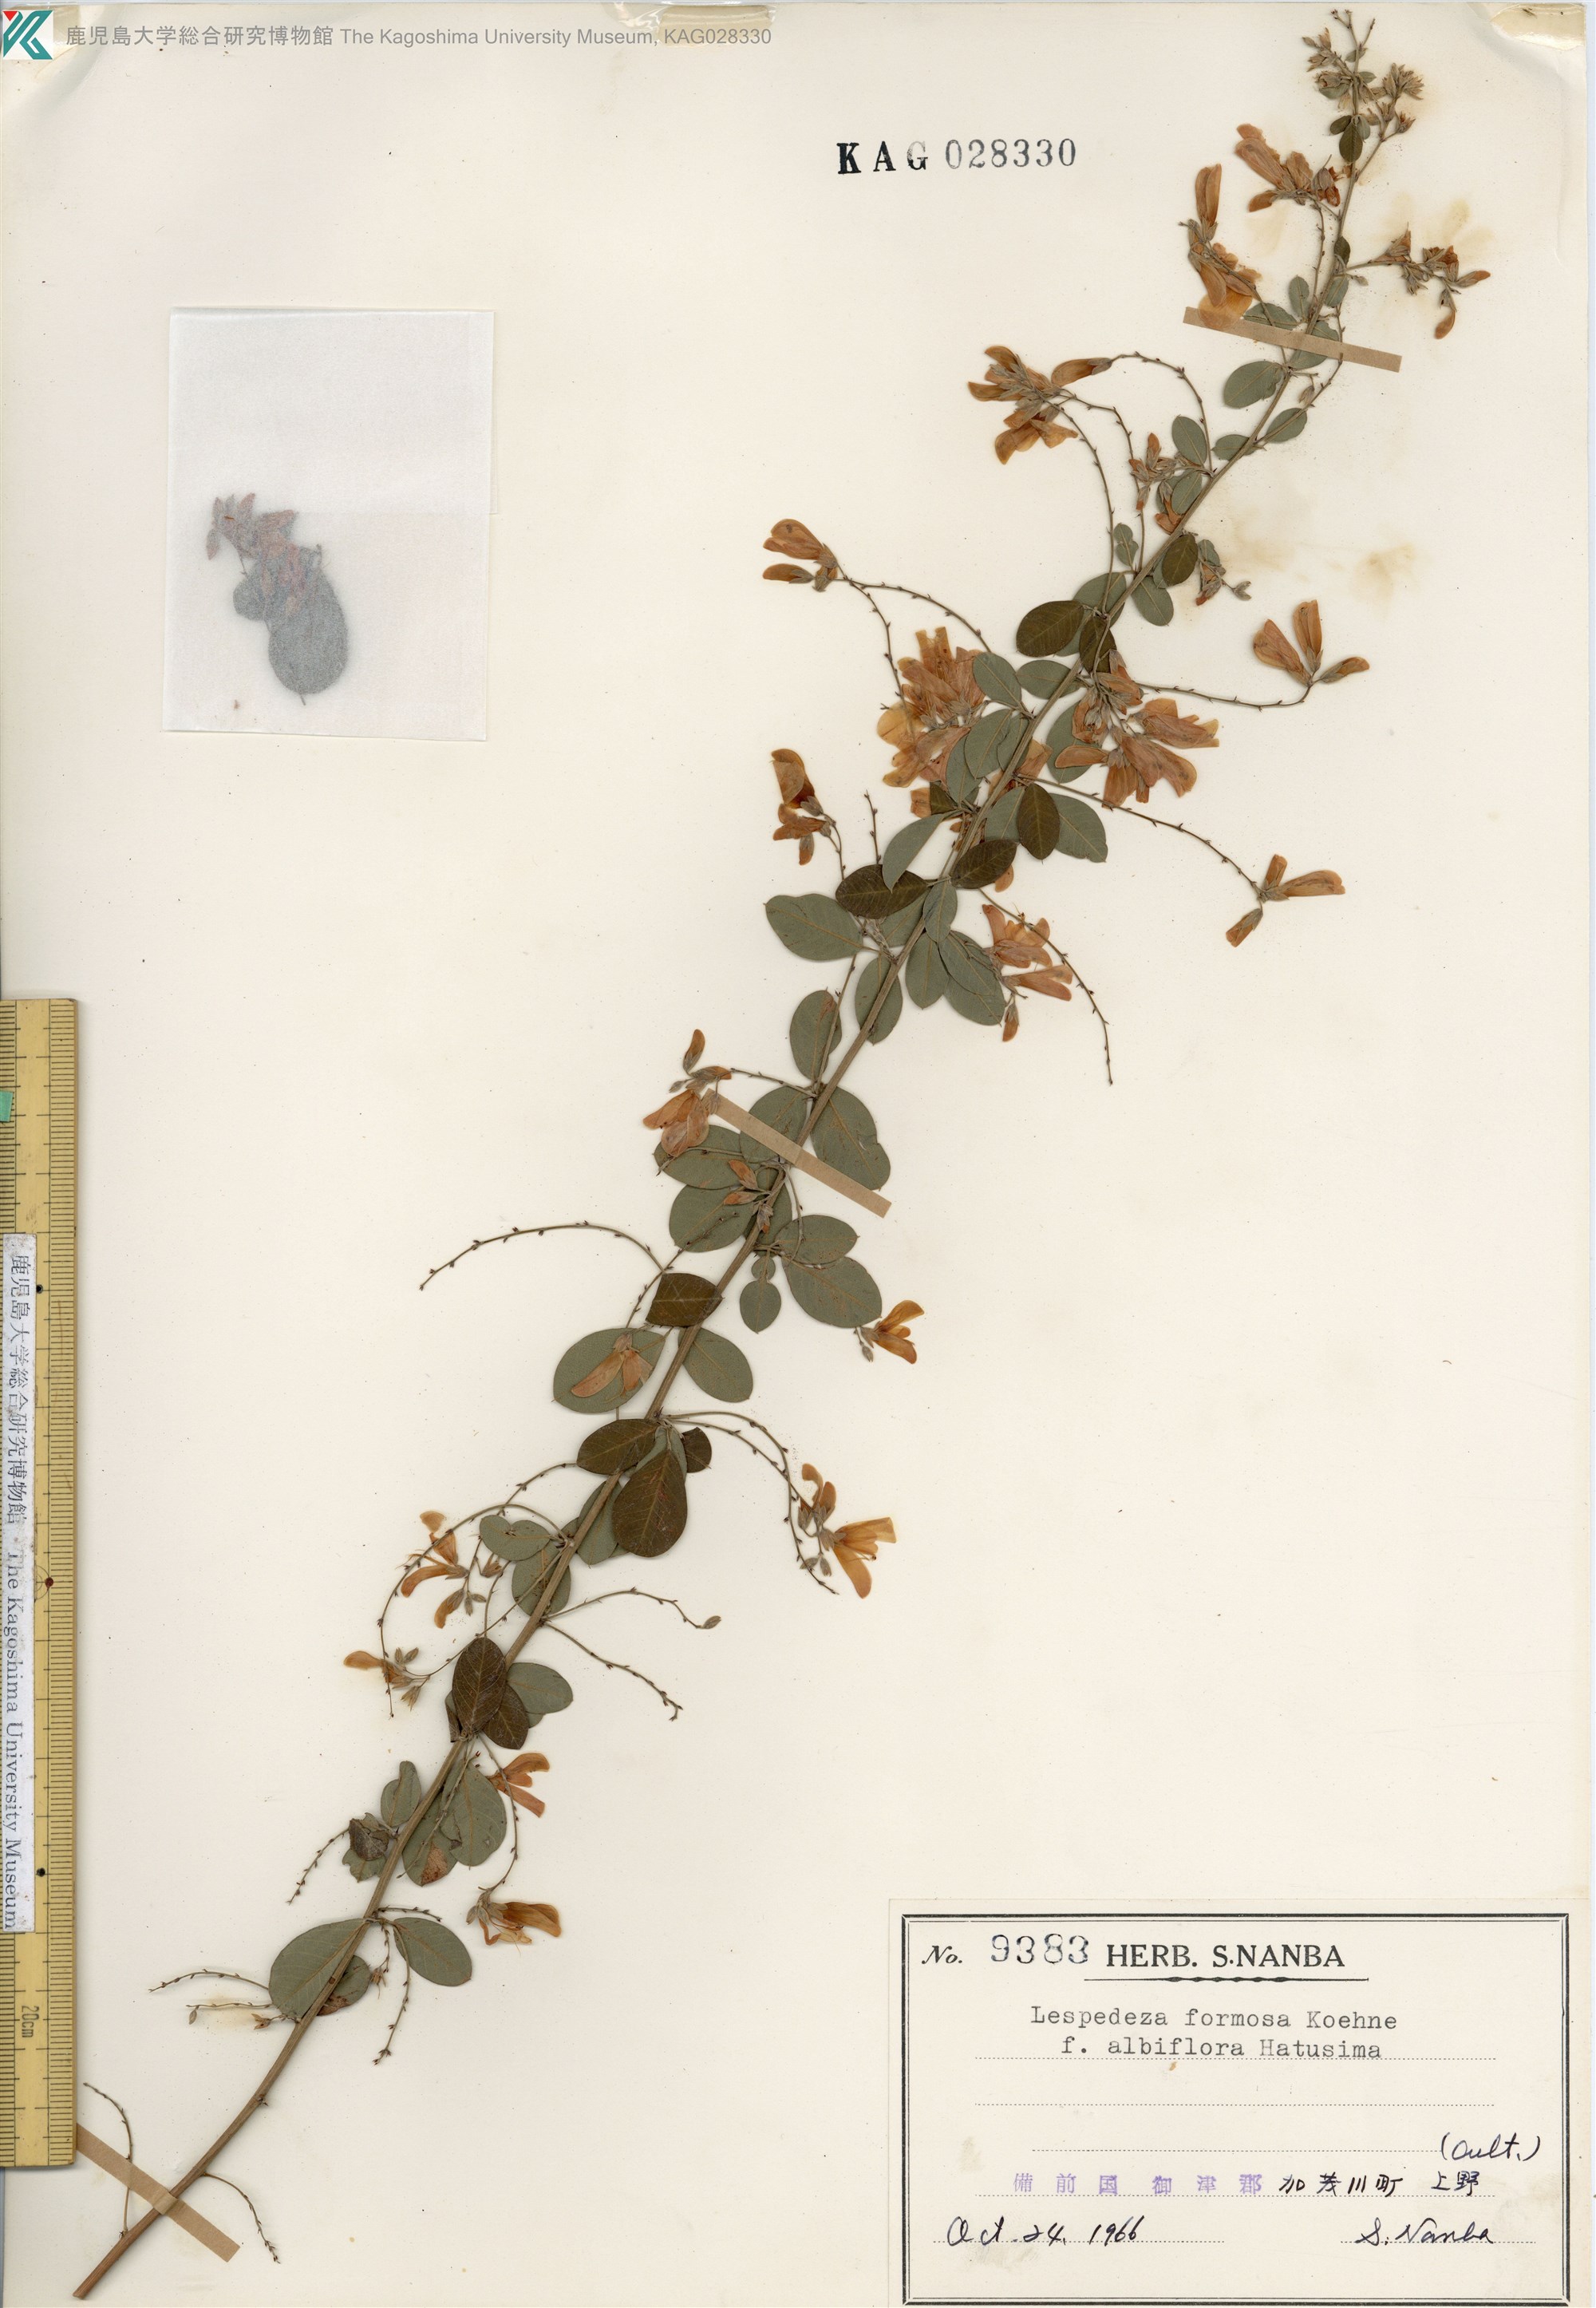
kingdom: Plantae
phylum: Tracheophyta
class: Magnoliopsida
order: Fabales
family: Fabaceae
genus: Lespedeza
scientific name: Lespedeza thunbergii
